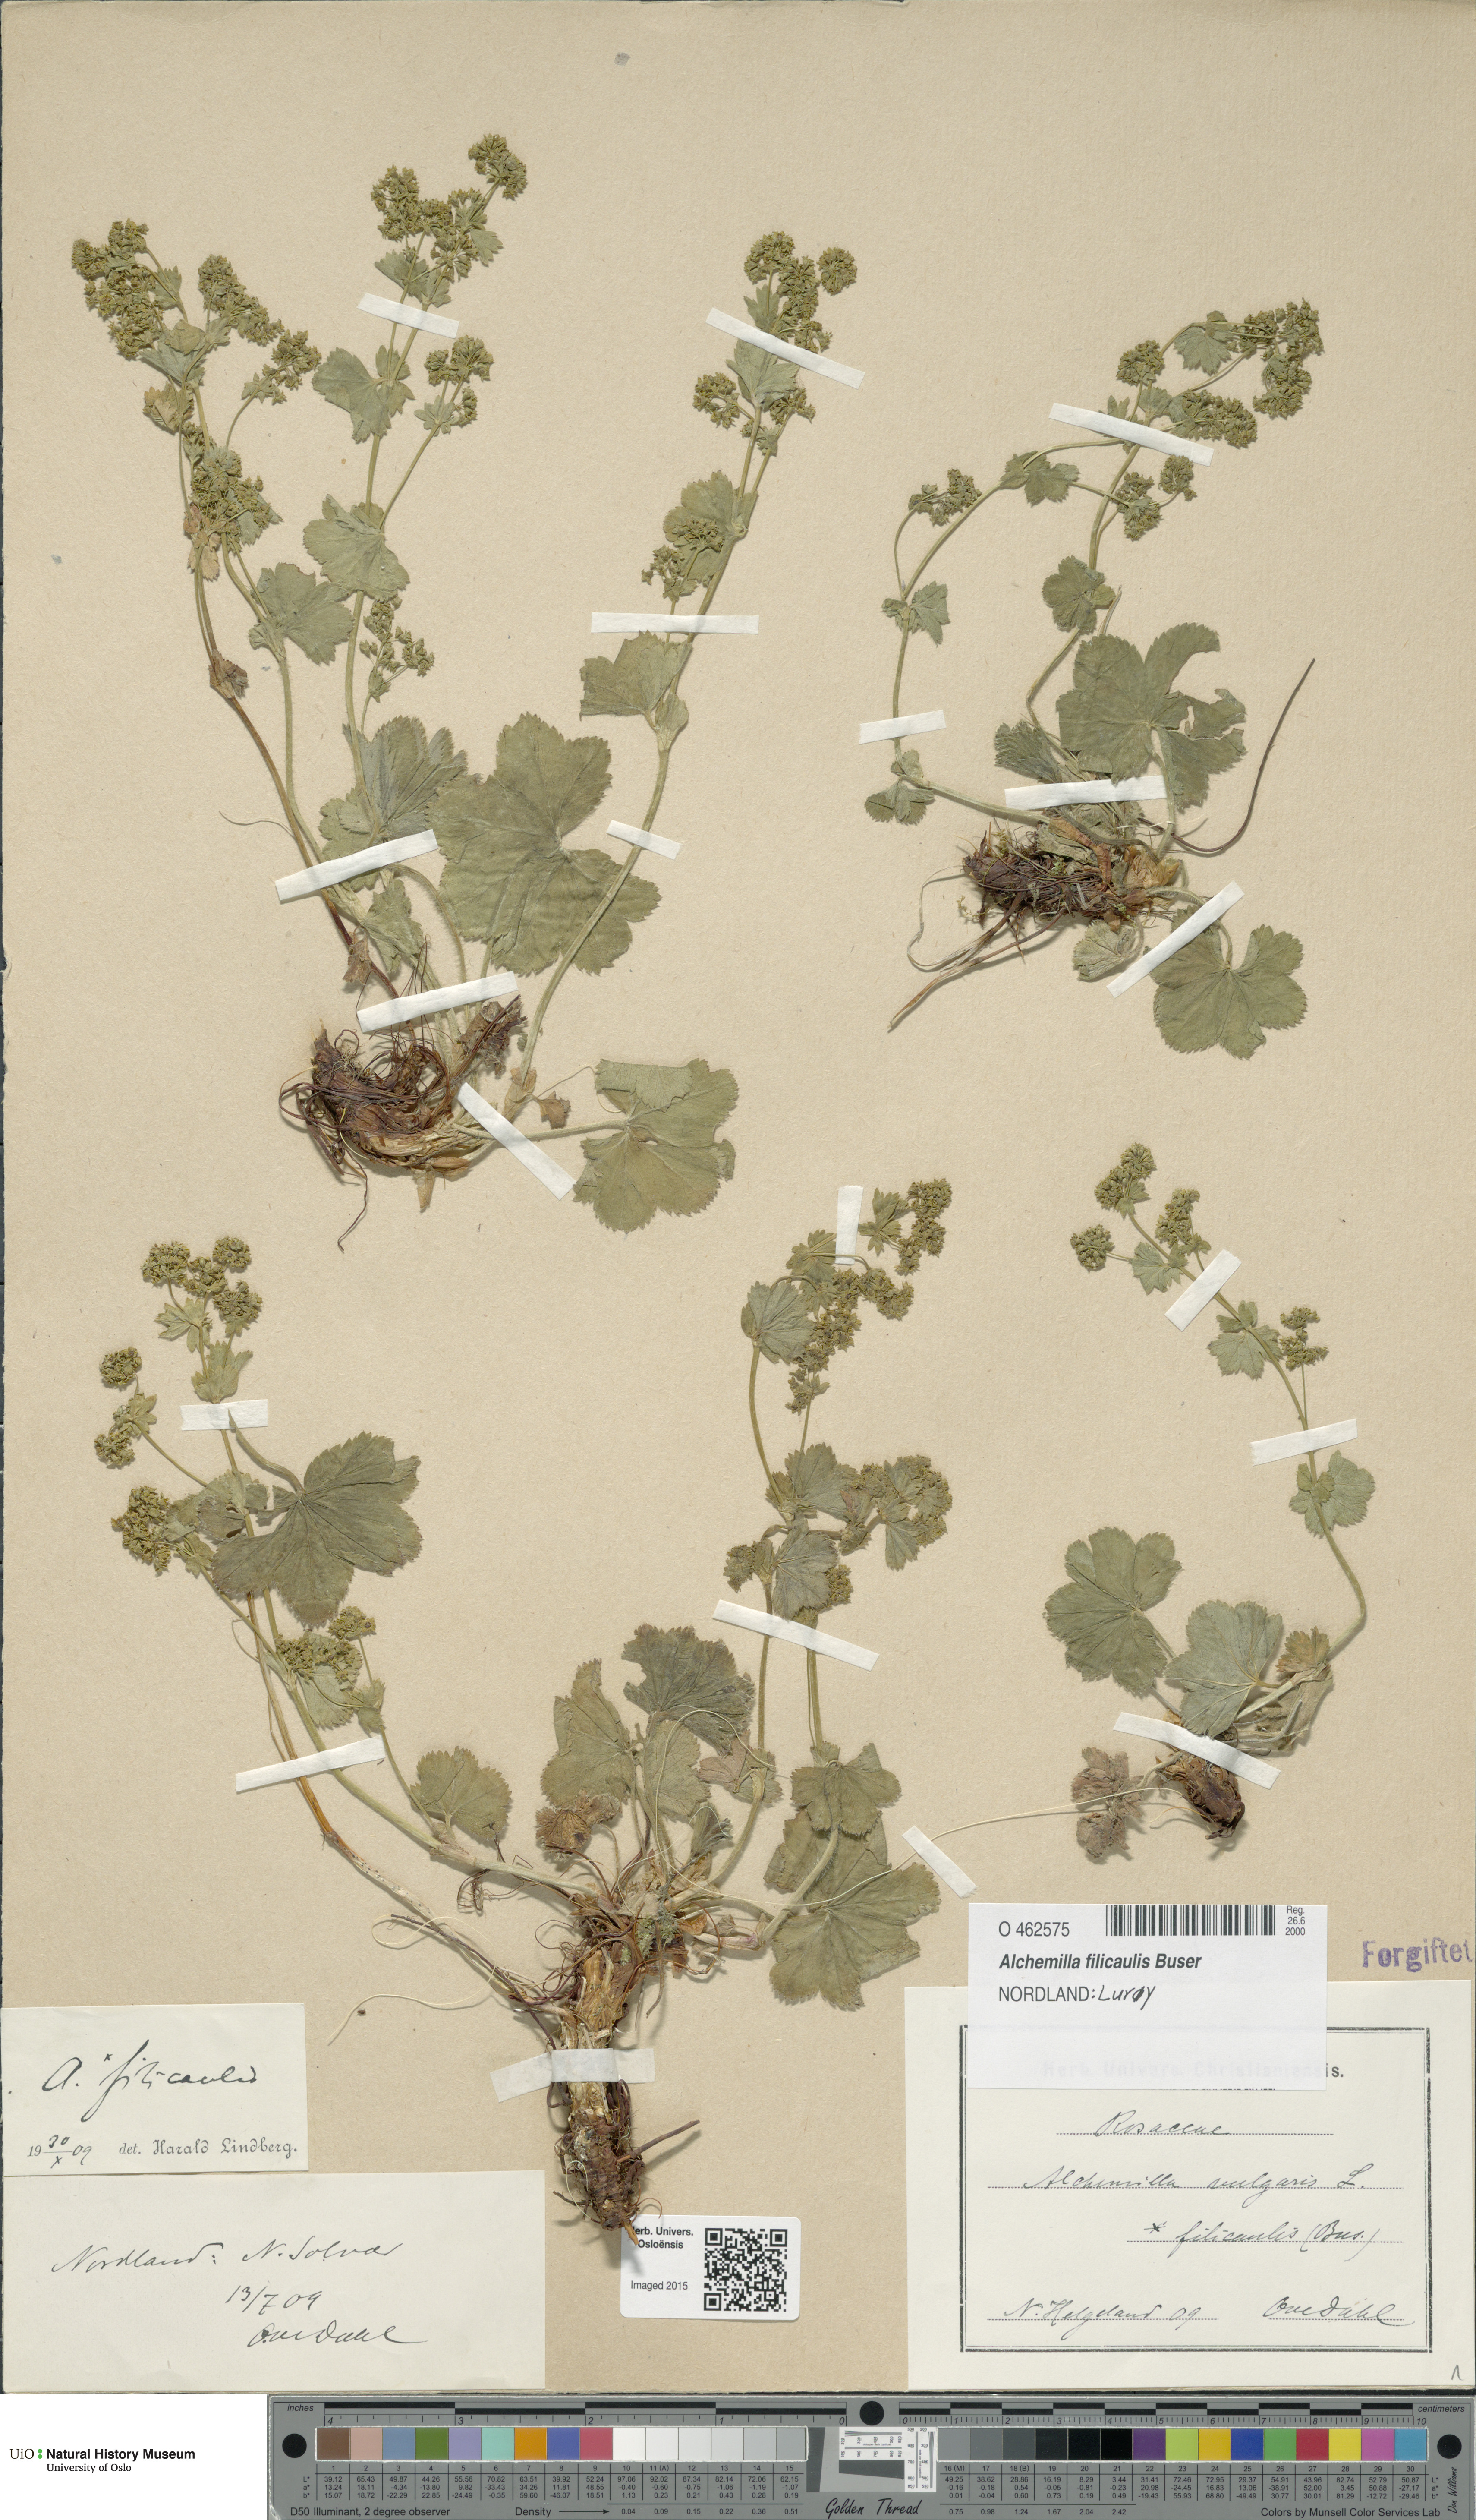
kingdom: Plantae
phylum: Tracheophyta
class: Magnoliopsida
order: Rosales
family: Rosaceae
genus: Alchemilla
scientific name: Alchemilla filicaulis
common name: Hairy lady's-mantle
